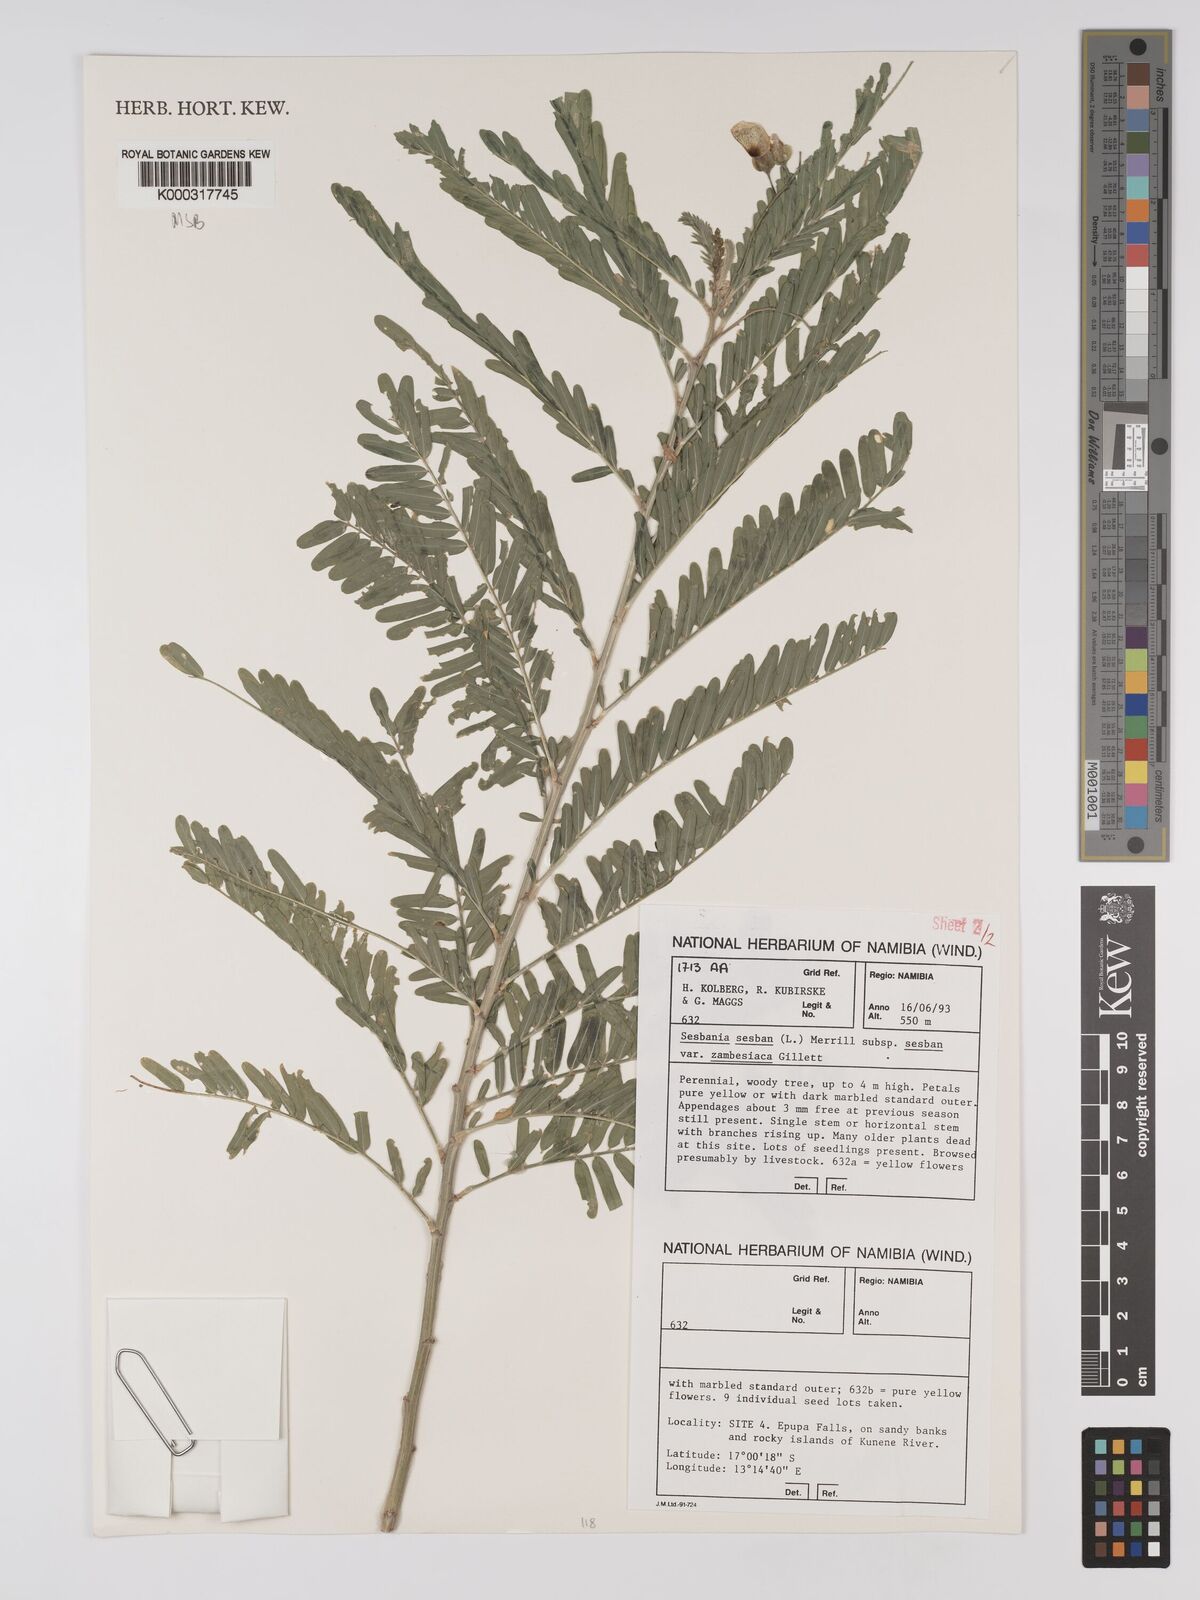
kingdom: Plantae
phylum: Tracheophyta
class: Magnoliopsida
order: Fabales
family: Fabaceae
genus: Sesbania
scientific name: Sesbania sesban
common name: Egyptian sesban
